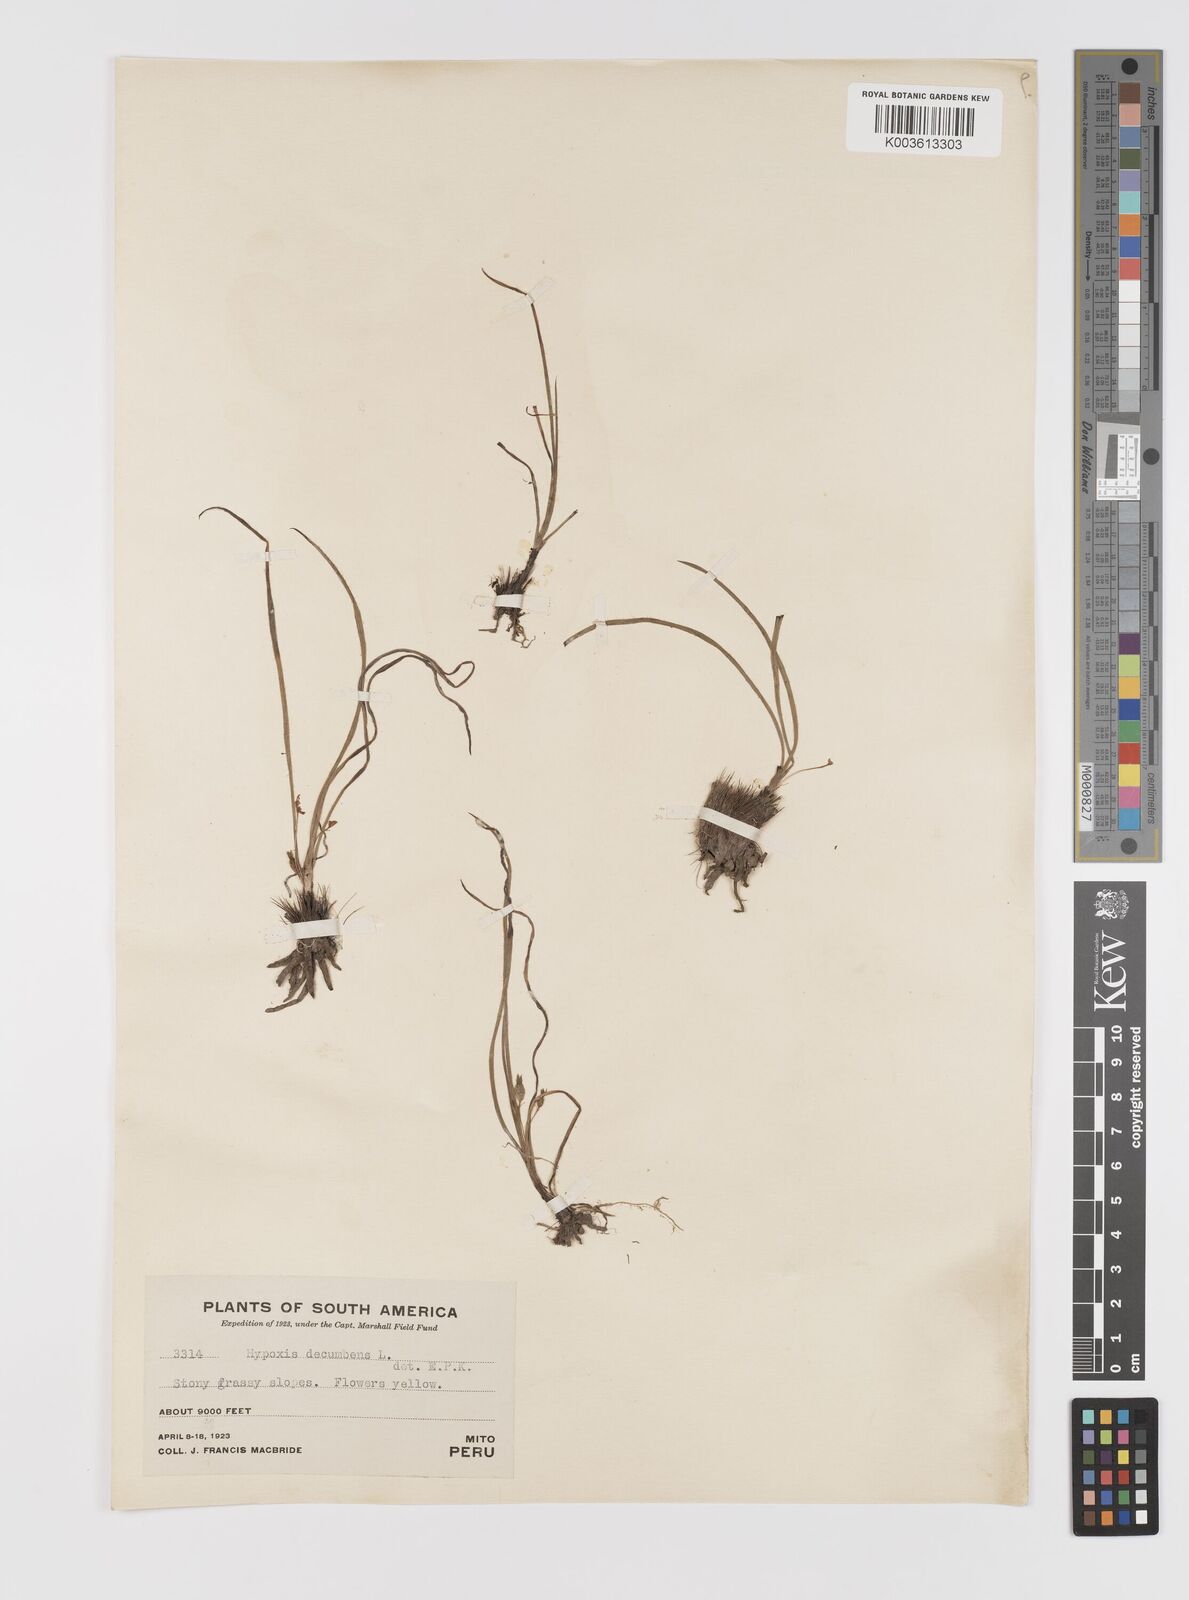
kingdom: Plantae
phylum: Tracheophyta
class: Liliopsida
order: Asparagales
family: Hypoxidaceae
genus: Hypoxis
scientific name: Hypoxis decumbens
